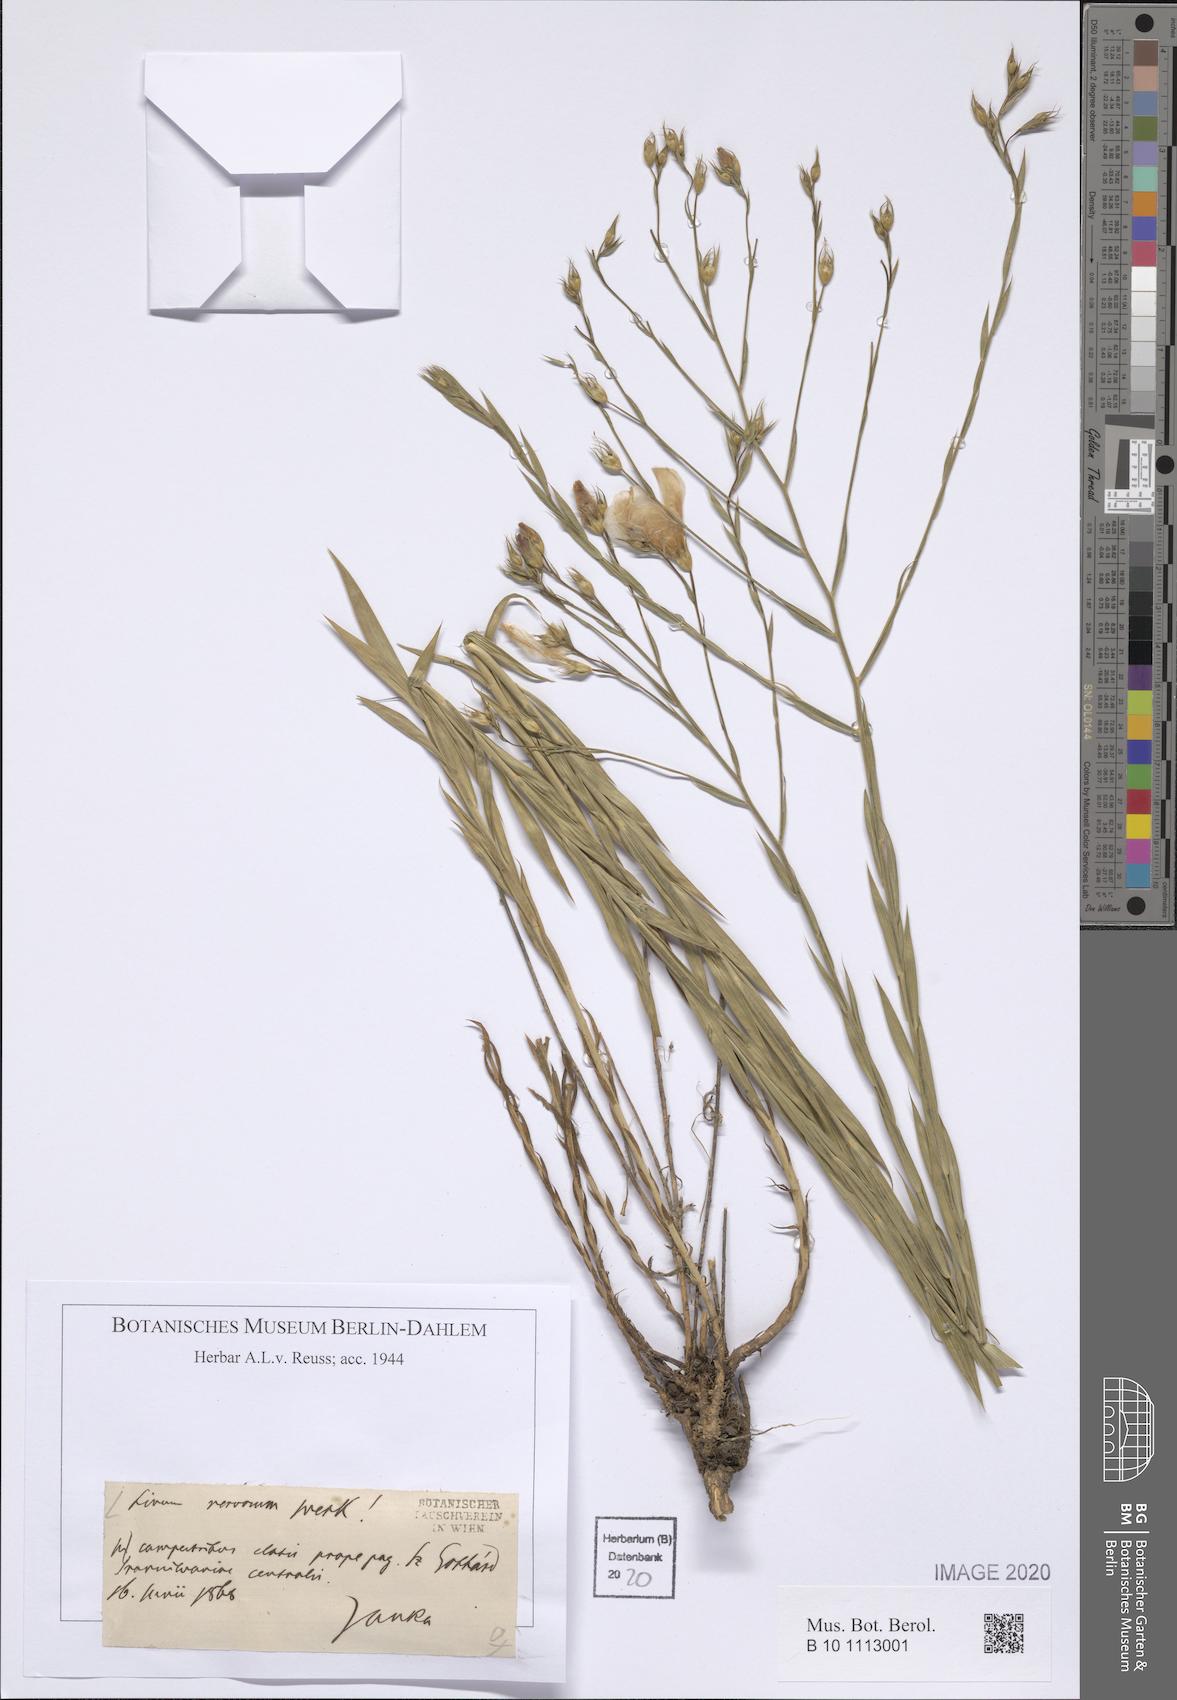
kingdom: Plantae
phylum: Tracheophyta
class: Magnoliopsida
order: Malpighiales
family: Linaceae
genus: Linum
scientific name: Linum nervosum
